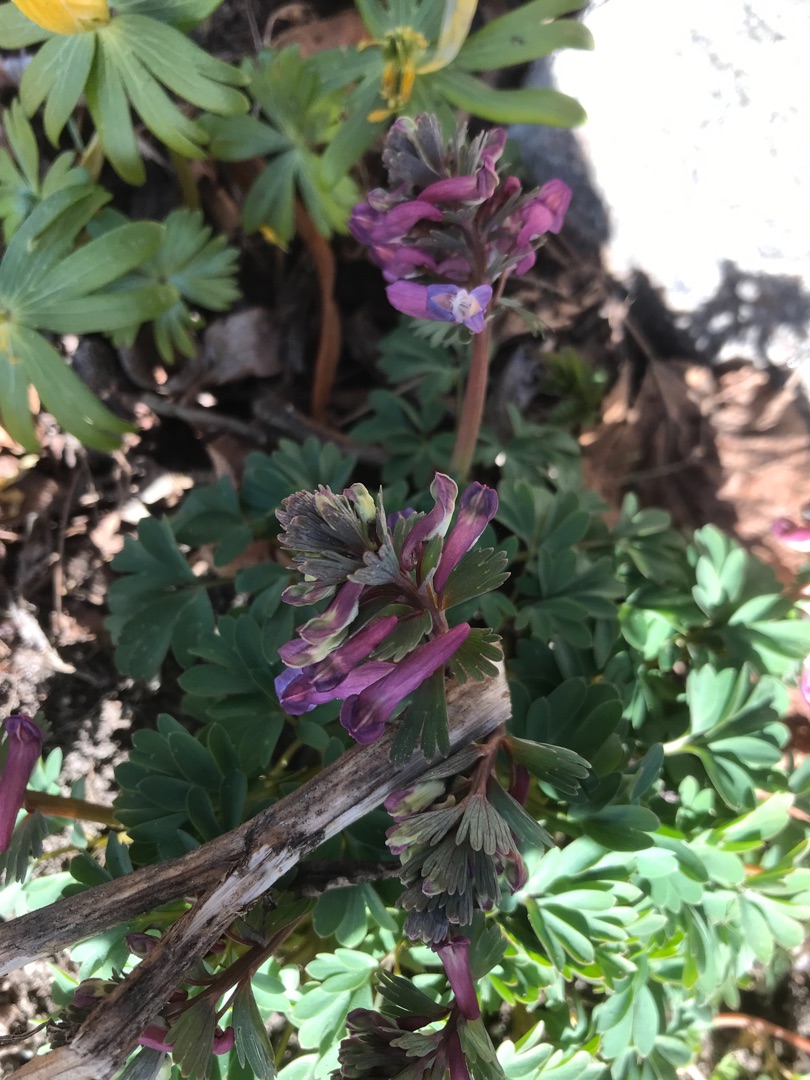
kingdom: Plantae
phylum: Tracheophyta
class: Magnoliopsida
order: Ranunculales
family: Papaveraceae
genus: Corydalis
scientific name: Corydalis solida
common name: Langstilket lærkespore
